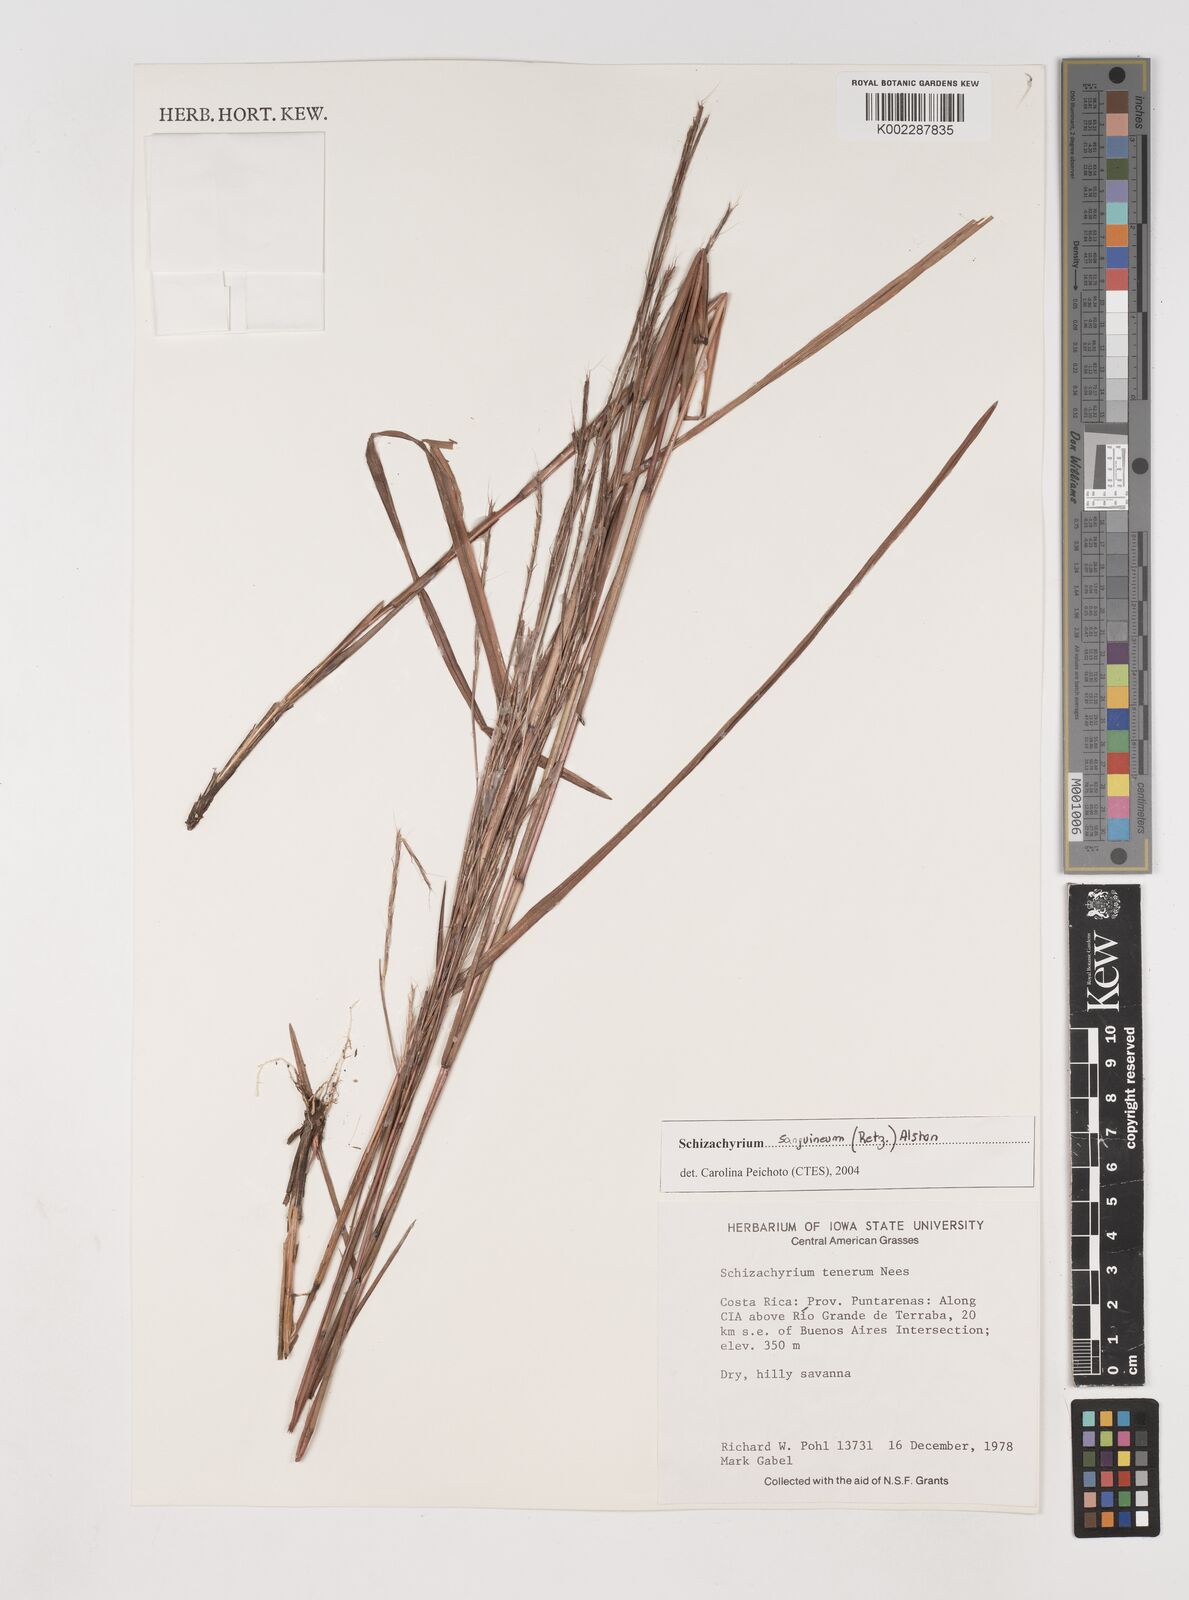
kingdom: Plantae
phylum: Tracheophyta
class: Liliopsida
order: Poales
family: Poaceae
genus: Schizachyrium
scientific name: Schizachyrium sanguineum
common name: Crimson bluestem
